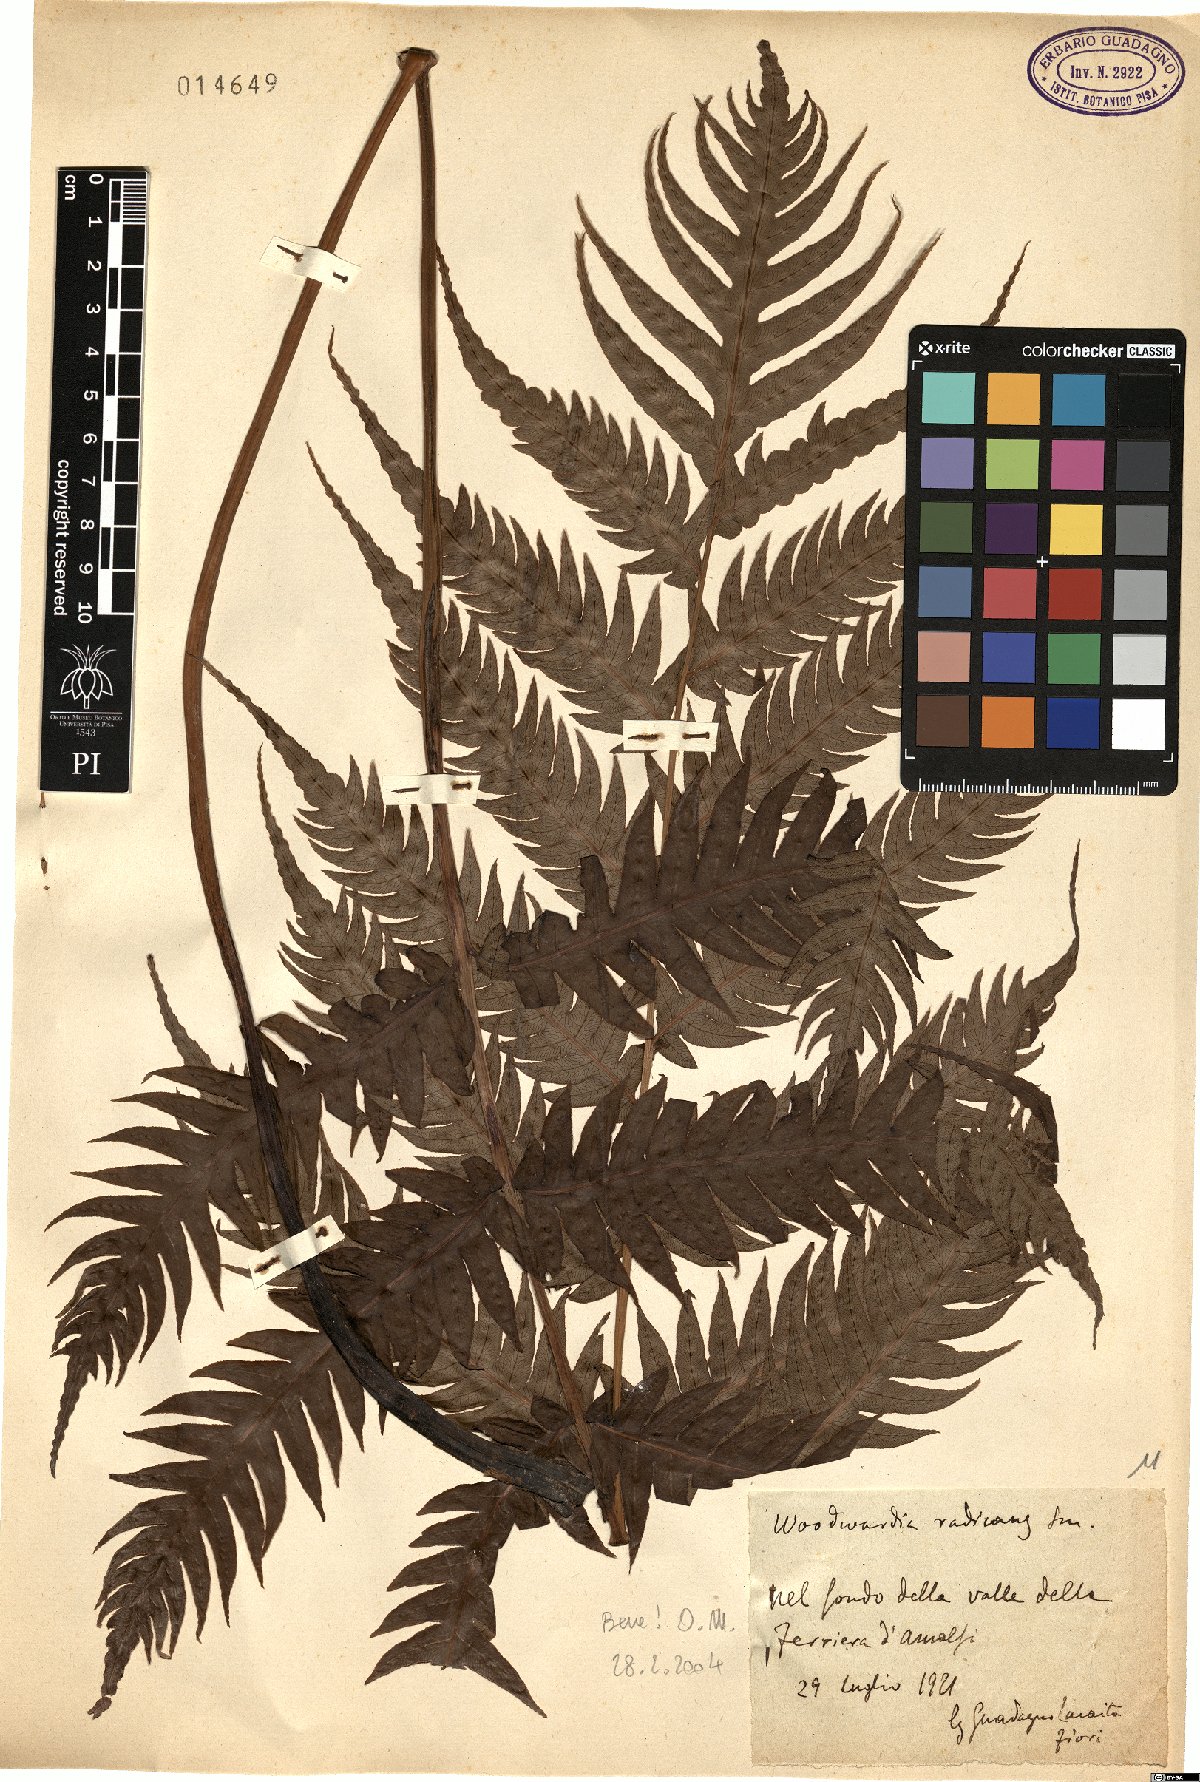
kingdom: Plantae
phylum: Tracheophyta
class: Polypodiopsida
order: Polypodiales
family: Blechnaceae
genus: Woodwardia
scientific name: Woodwardia radicans
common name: Rooting chainfern
